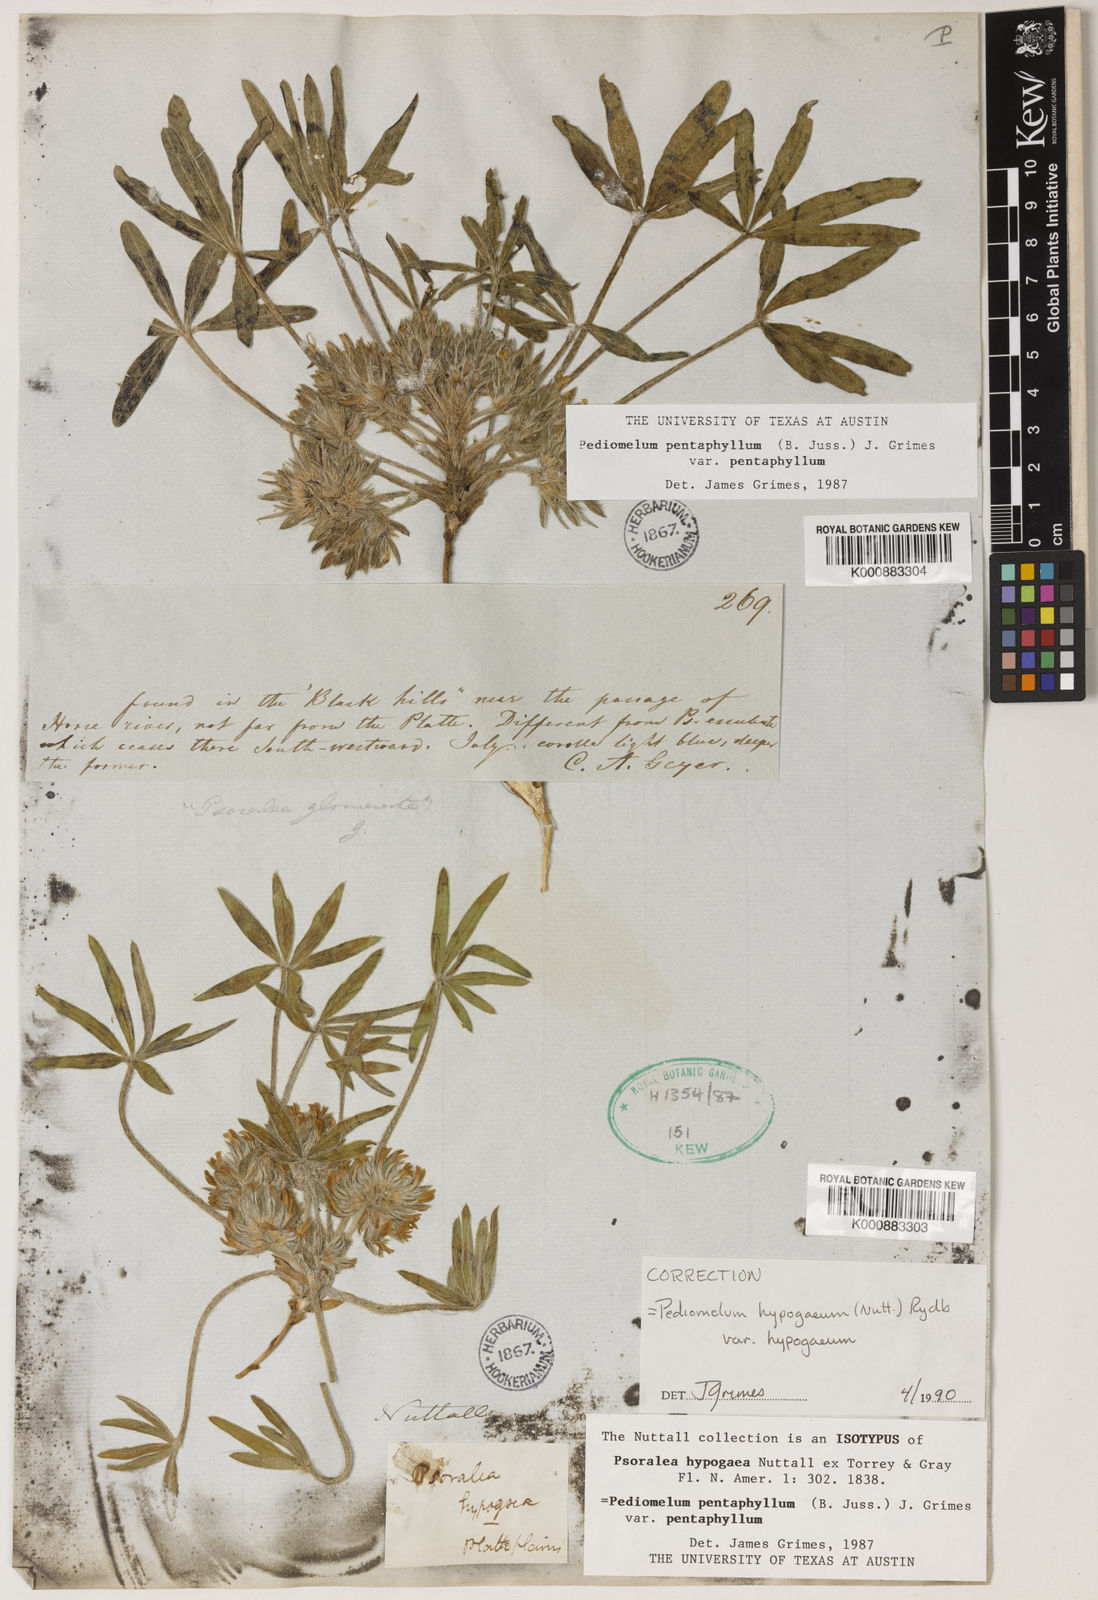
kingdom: Plantae
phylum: Tracheophyta
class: Magnoliopsida
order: Fabales
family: Fabaceae
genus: Pediomelum
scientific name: Pediomelum hypogaeum
